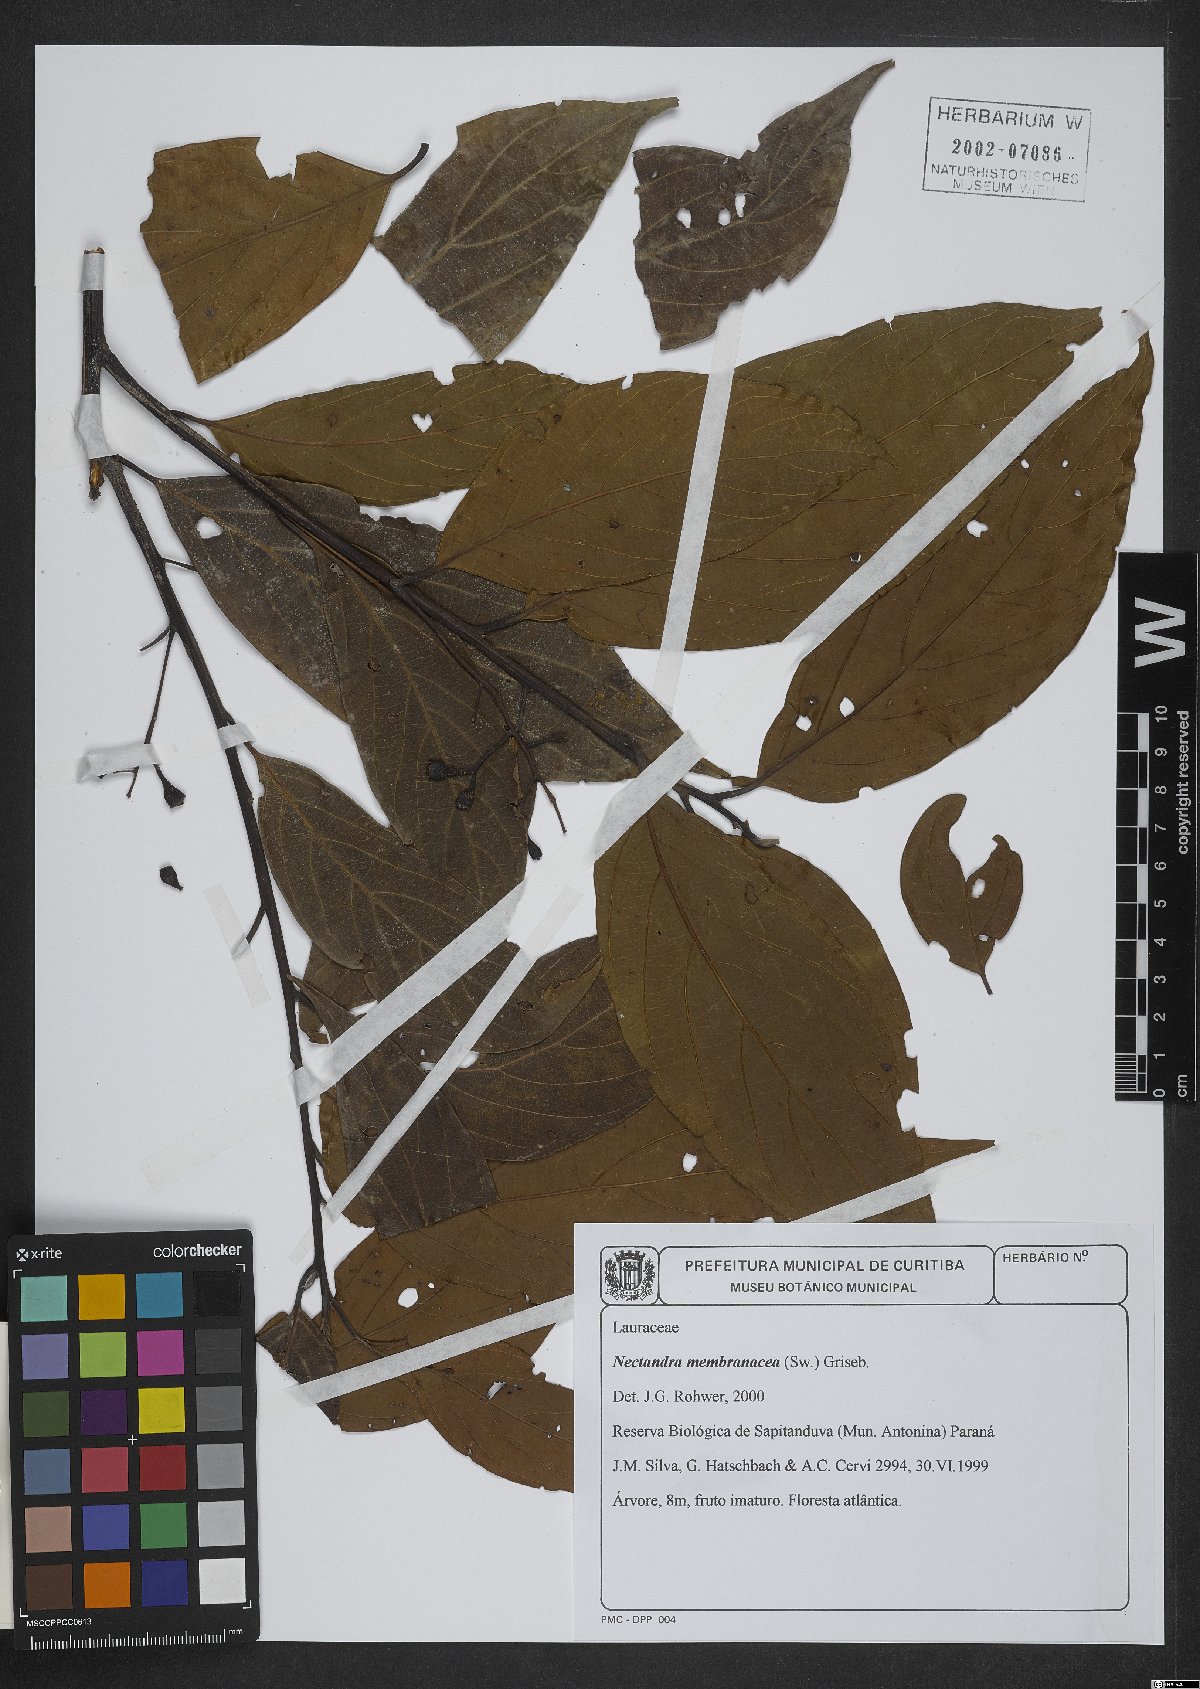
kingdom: Plantae
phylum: Tracheophyta
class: Magnoliopsida
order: Laurales
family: Lauraceae
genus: Nectandra
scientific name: Nectandra membranacea
